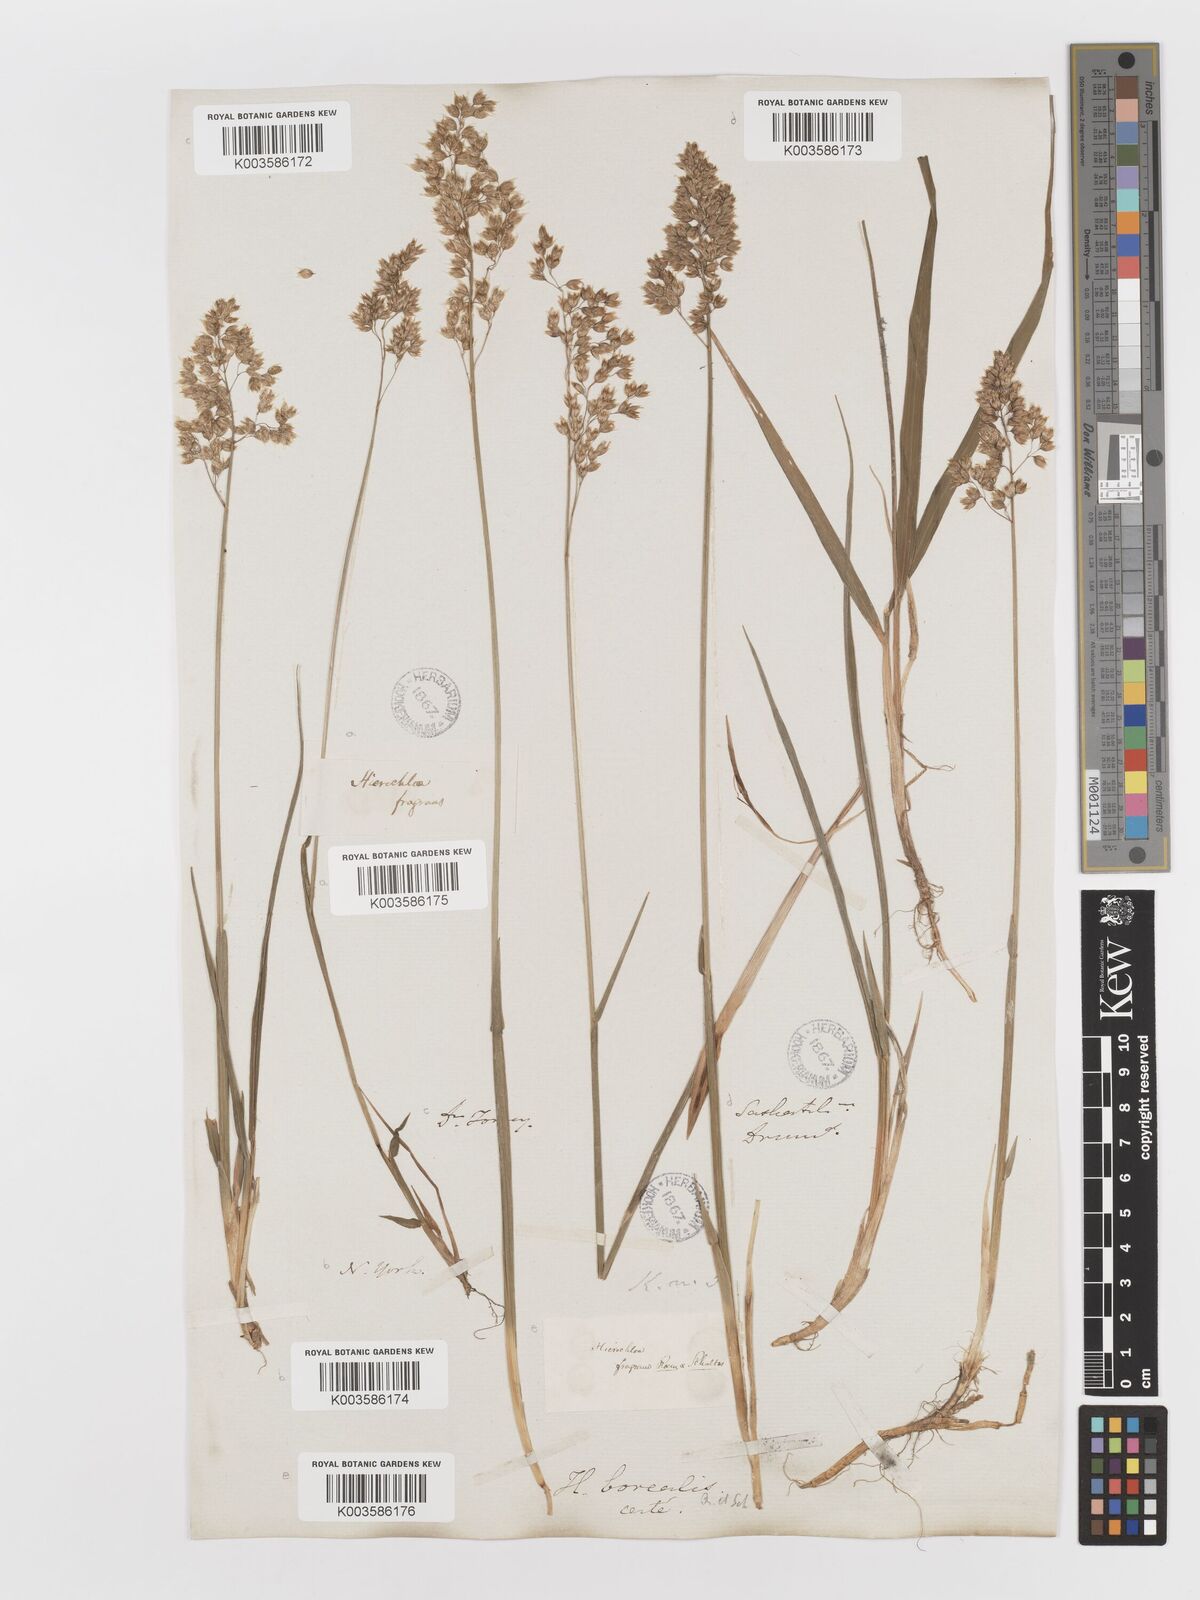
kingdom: Plantae
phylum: Tracheophyta
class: Liliopsida
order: Poales
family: Poaceae
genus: Anthoxanthum
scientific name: Anthoxanthum nitens
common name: Holy grass
